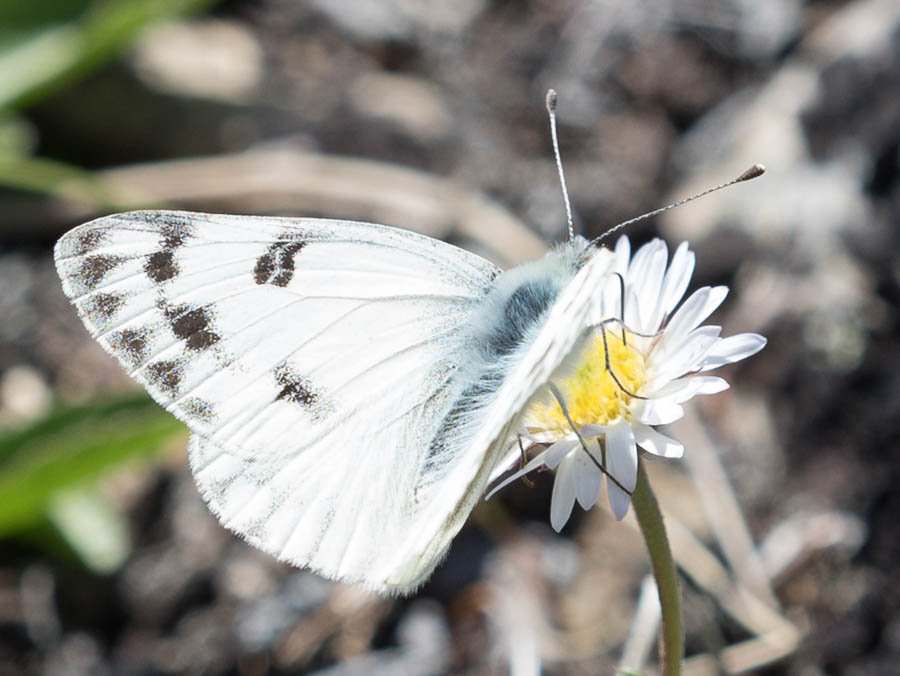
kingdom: Animalia
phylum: Arthropoda
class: Insecta
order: Lepidoptera
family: Pieridae
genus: Pontia
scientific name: Pontia occidentalis
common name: Western White
